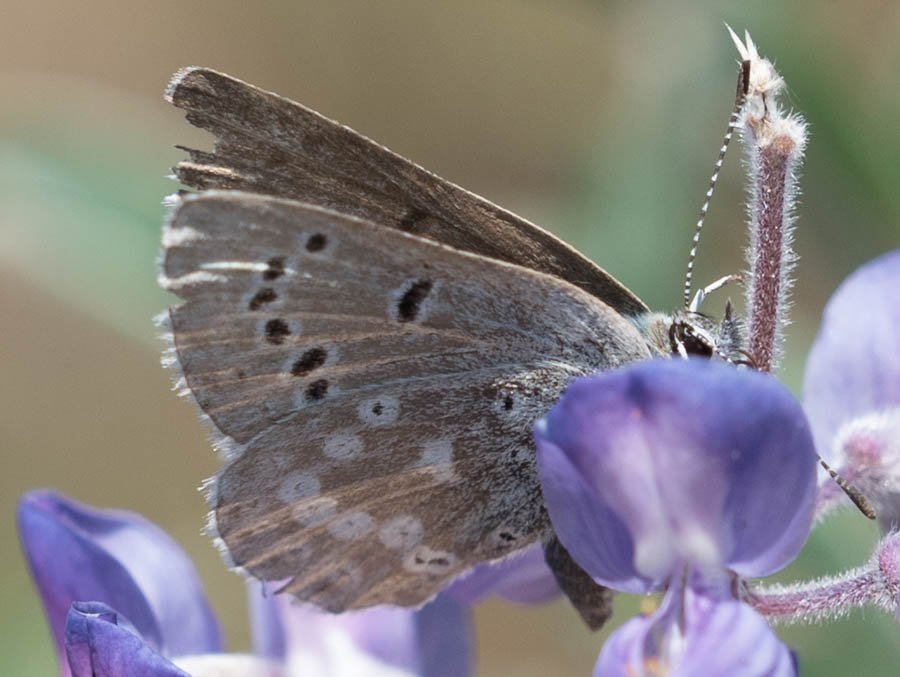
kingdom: Animalia
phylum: Arthropoda
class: Insecta
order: Lepidoptera
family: Lycaenidae
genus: Icaricia
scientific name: Icaricia icarioides
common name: Boisduval's Blue
